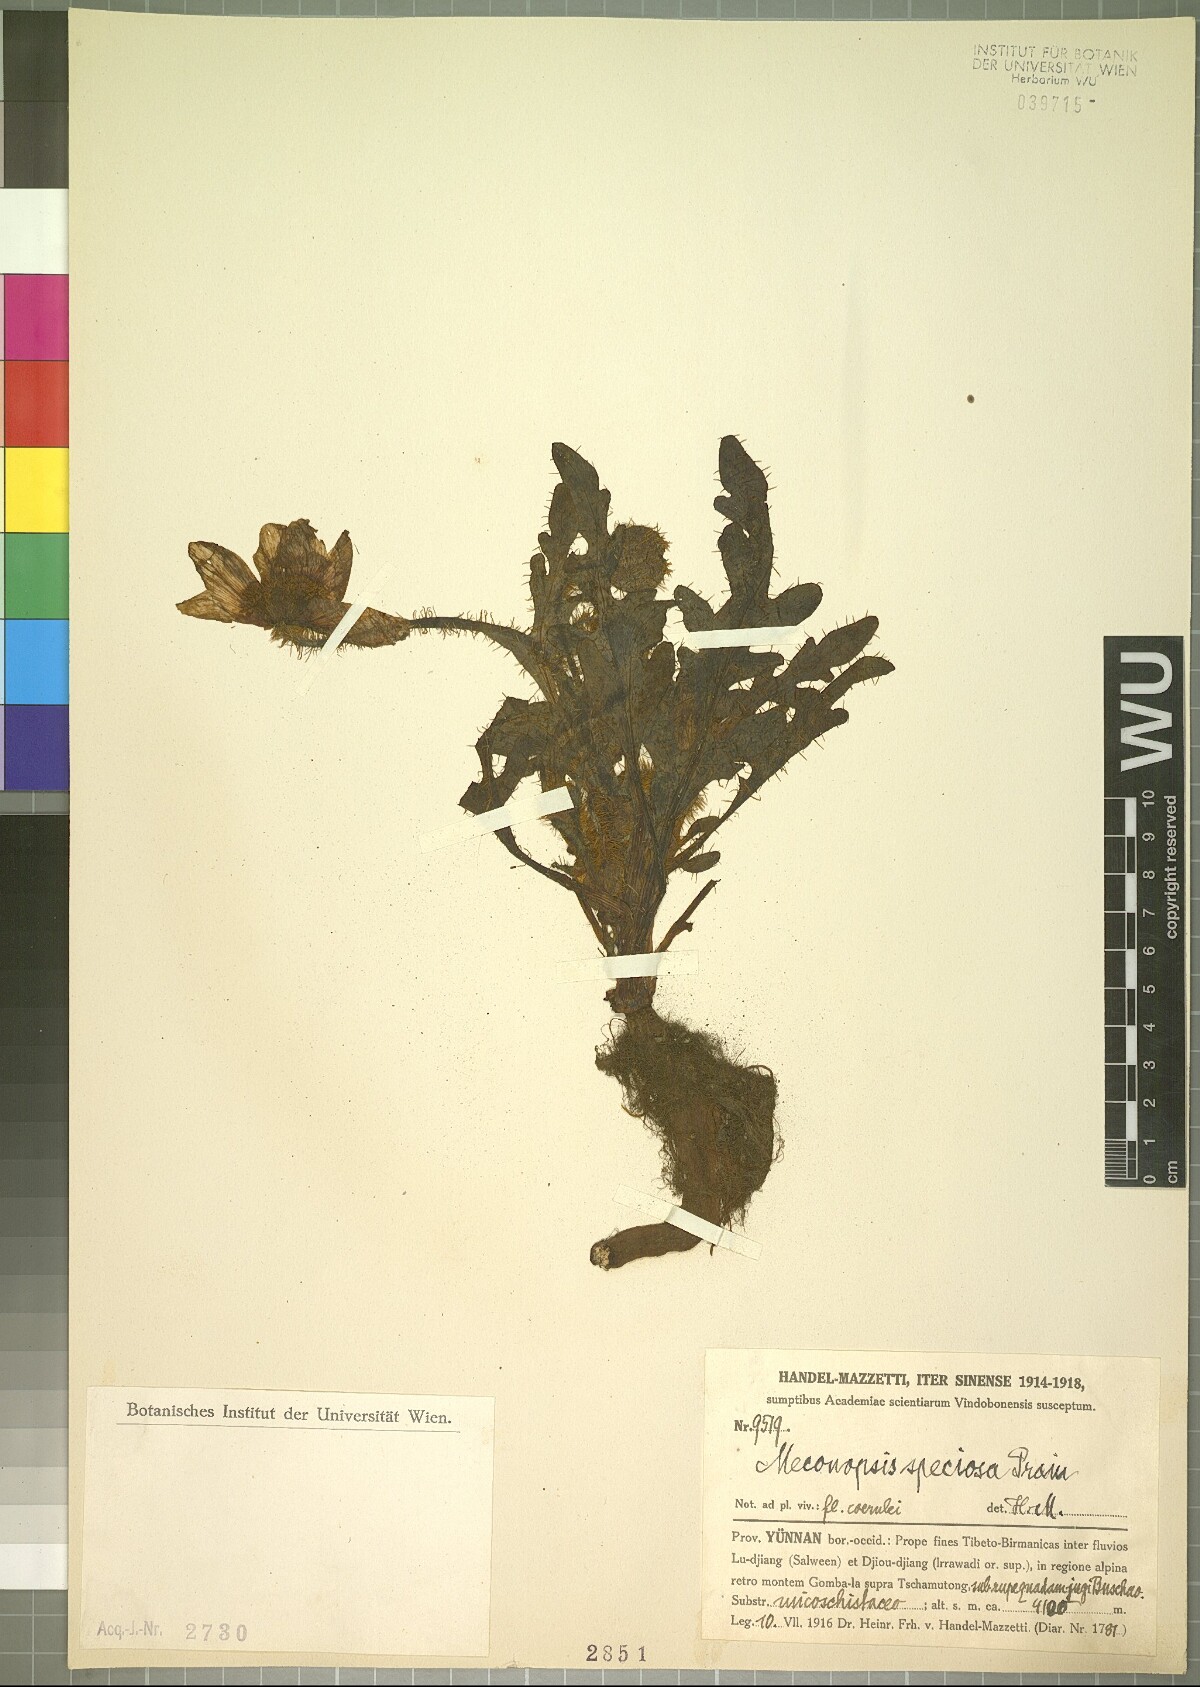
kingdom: Plantae
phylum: Tracheophyta
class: Magnoliopsida
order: Ranunculales
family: Papaveraceae
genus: Meconopsis
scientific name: Meconopsis speciosa
